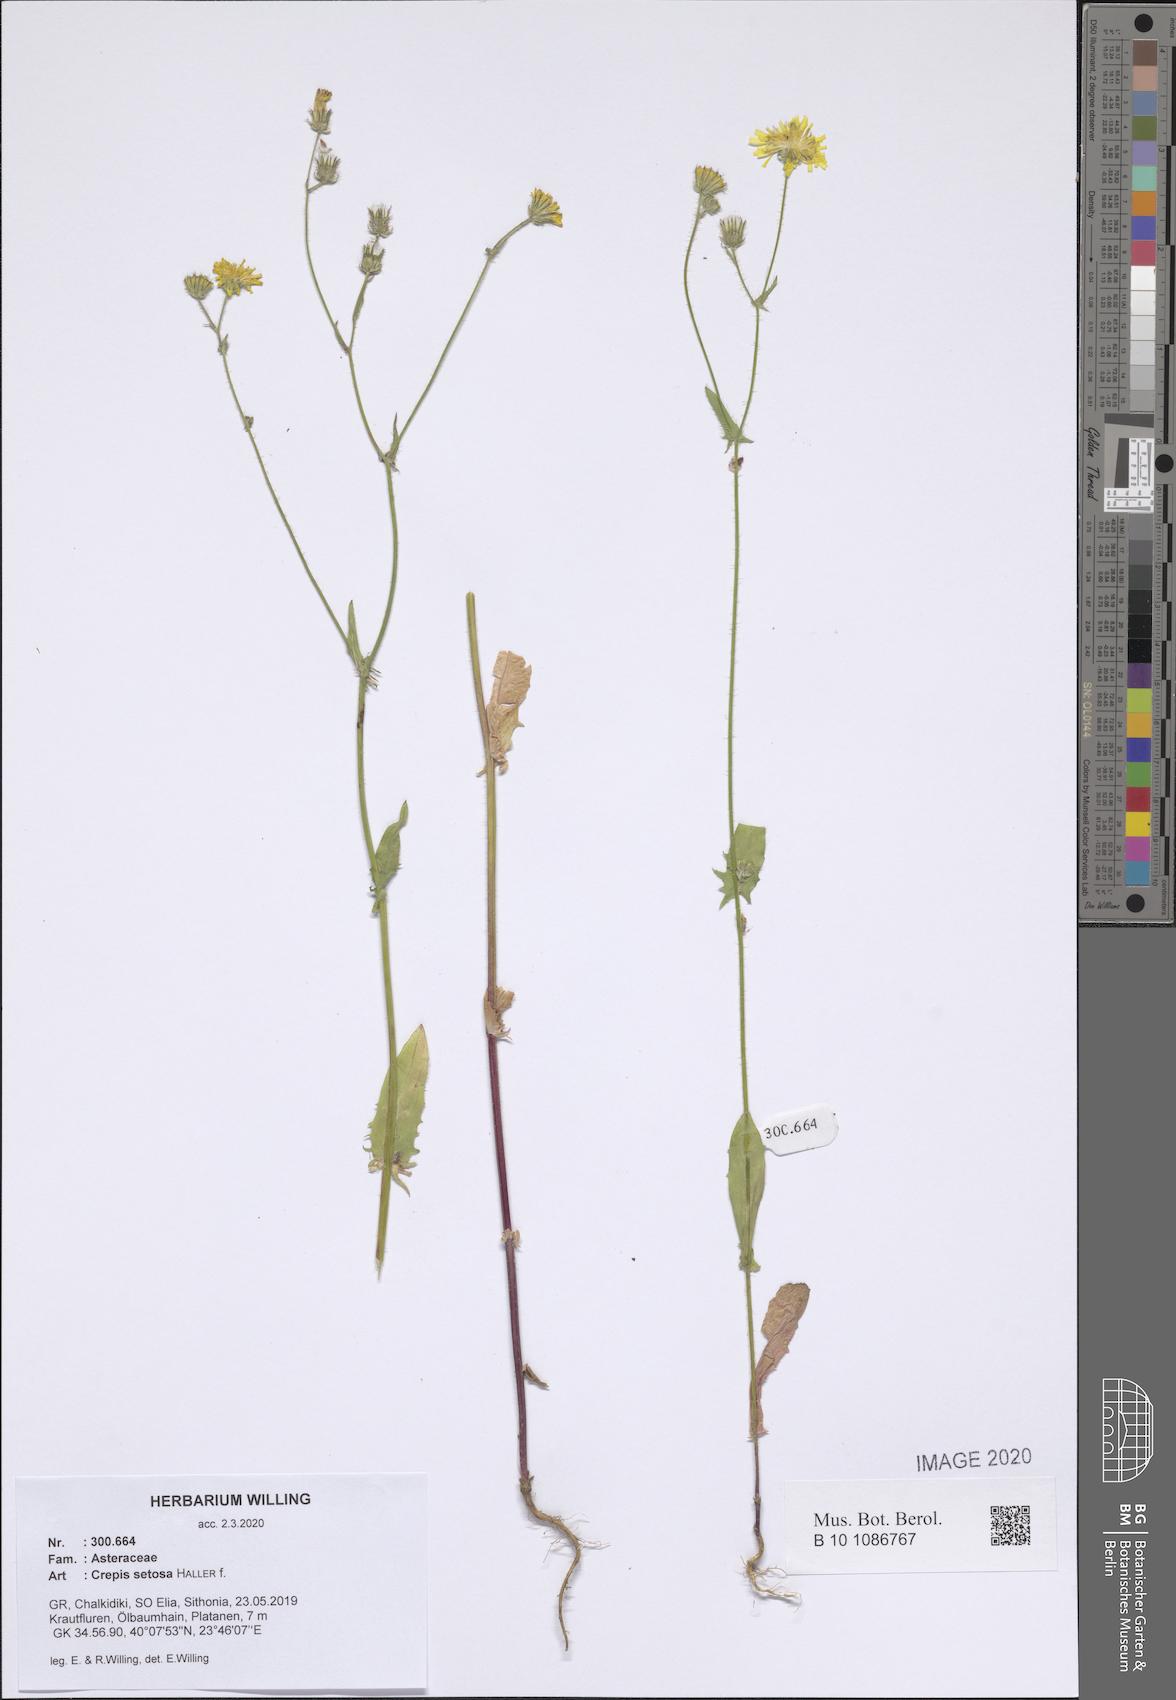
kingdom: Plantae
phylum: Tracheophyta
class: Magnoliopsida
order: Asterales
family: Asteraceae
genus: Crepis
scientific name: Crepis setosa
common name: Bristly hawk's-beard
